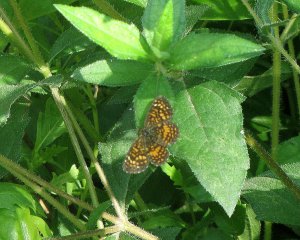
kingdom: Animalia
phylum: Arthropoda
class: Insecta
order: Lepidoptera
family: Nymphalidae
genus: Phyciodes
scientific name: Phyciodes phaon
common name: Phaon Crescent
